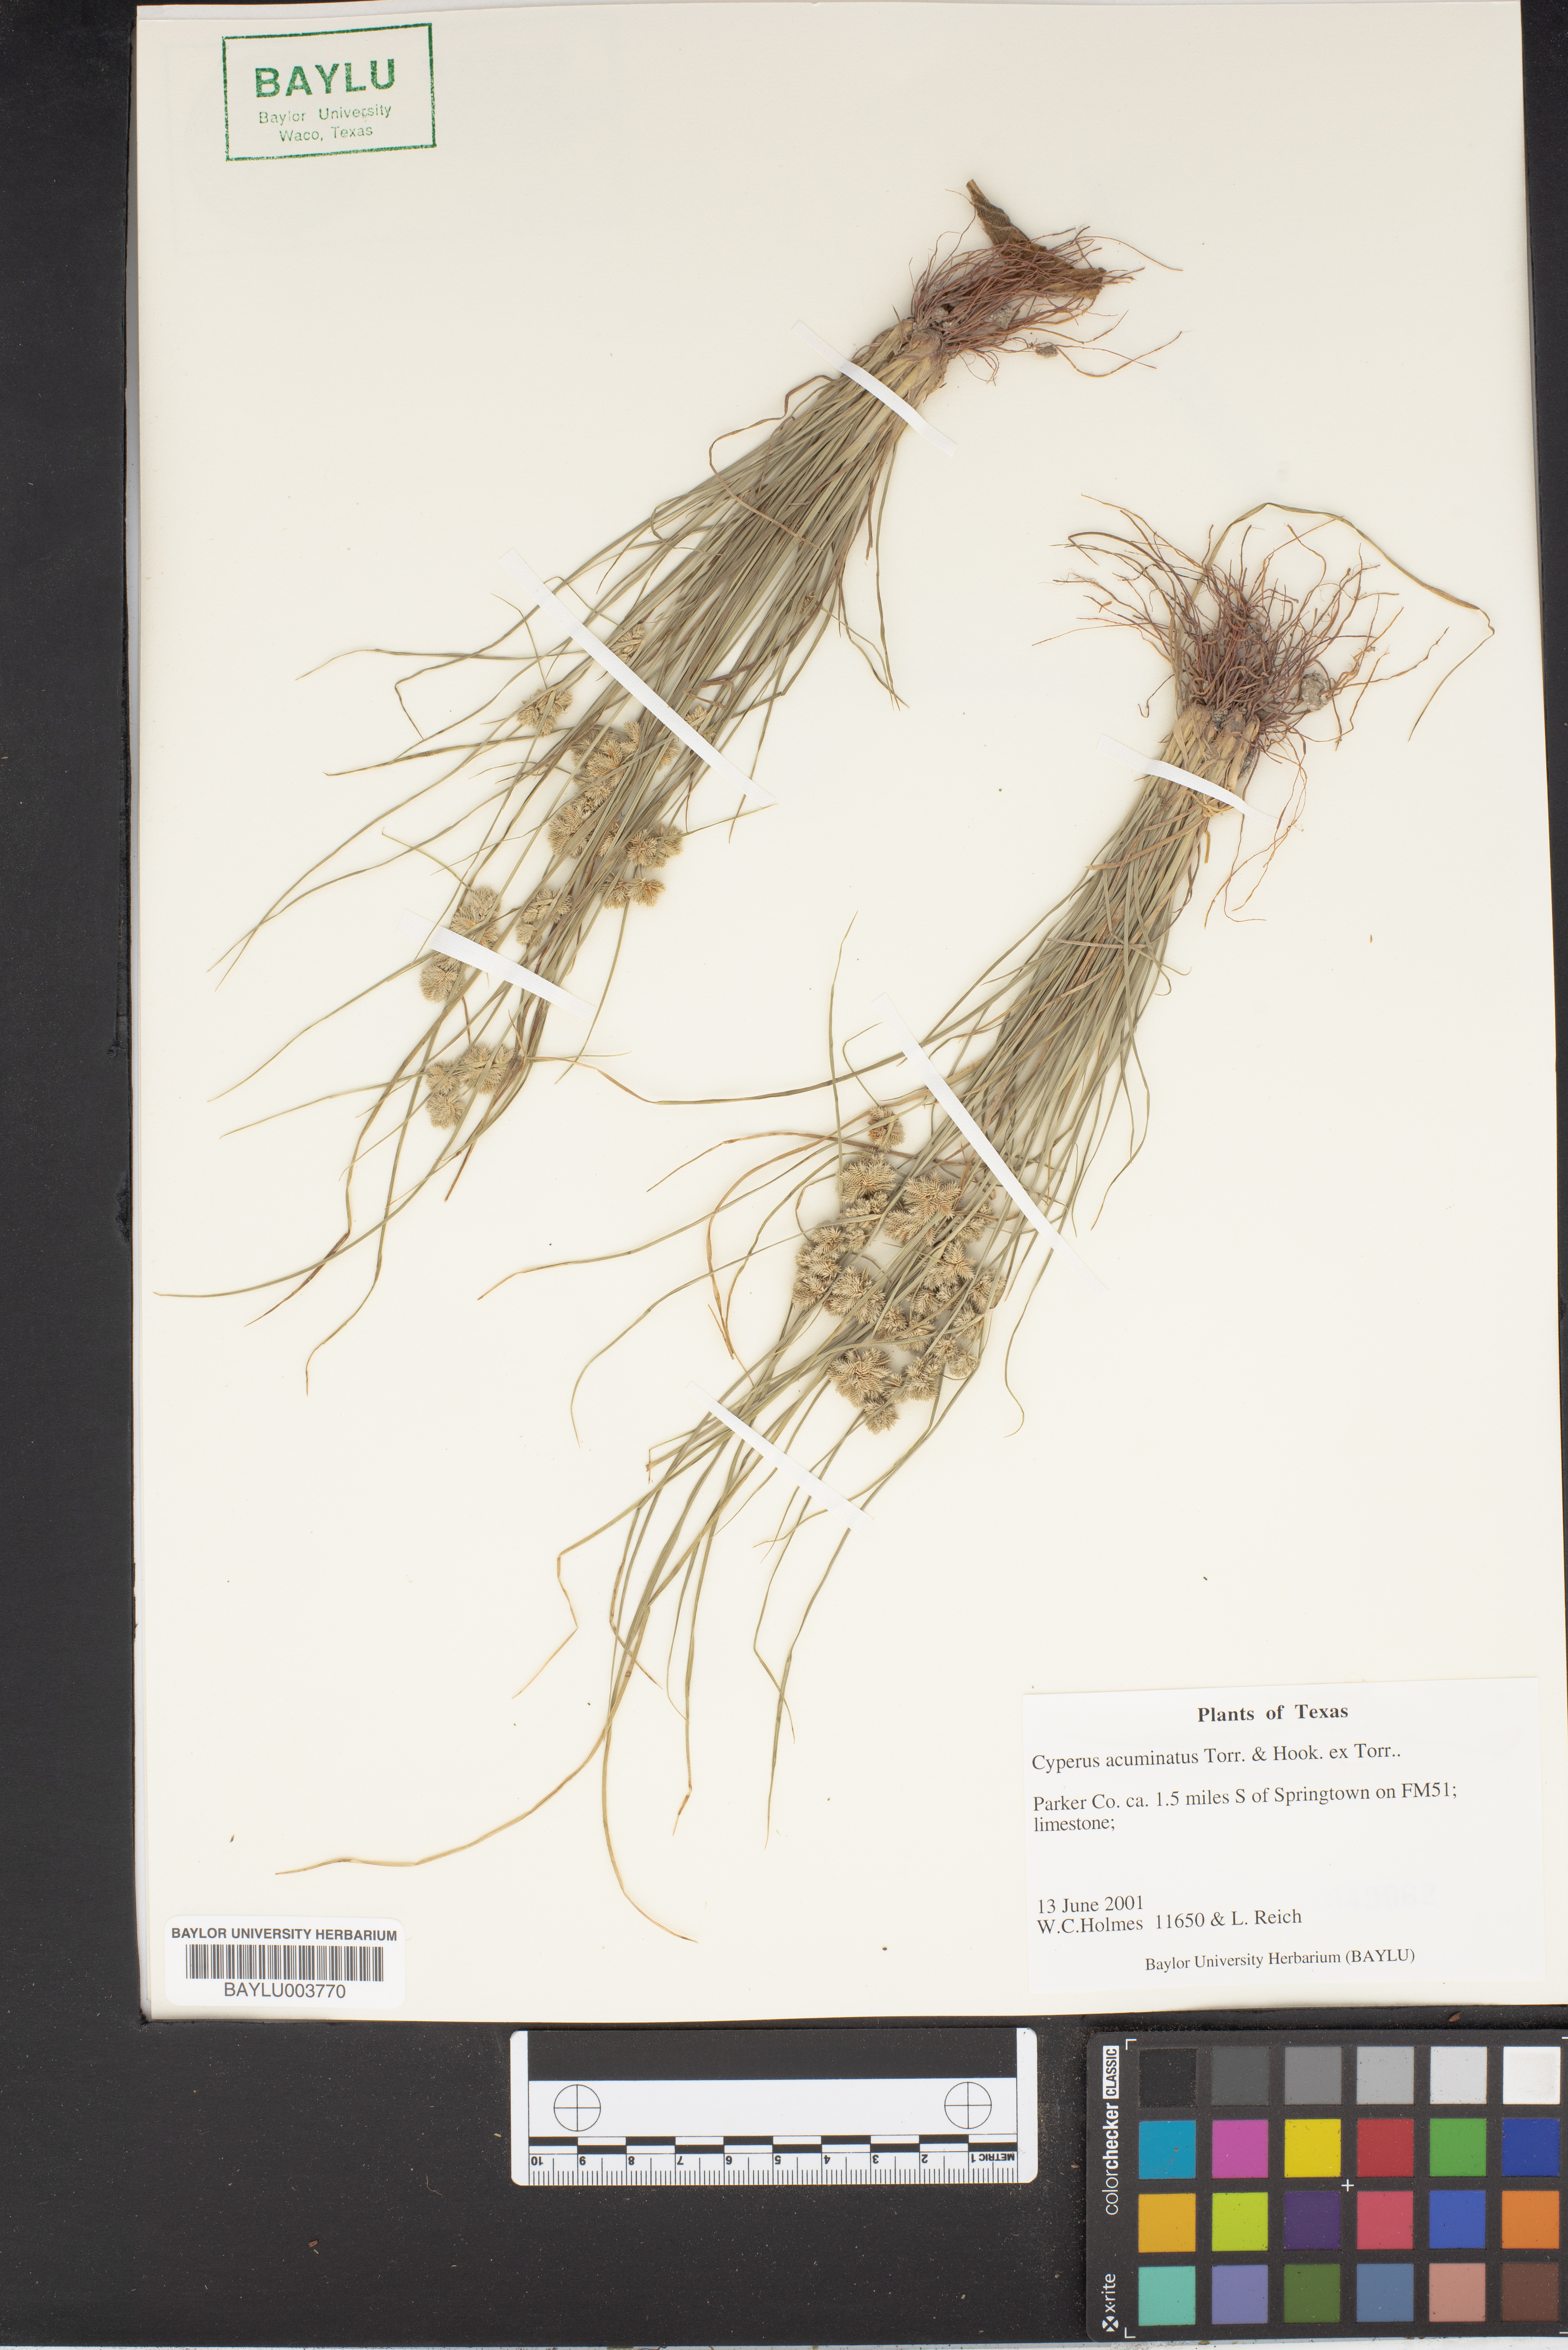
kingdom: Plantae
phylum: Tracheophyta
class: Liliopsida
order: Poales
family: Cyperaceae
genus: Cyperus
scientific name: Cyperus acuminatus
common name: Short-pointed cyperus
